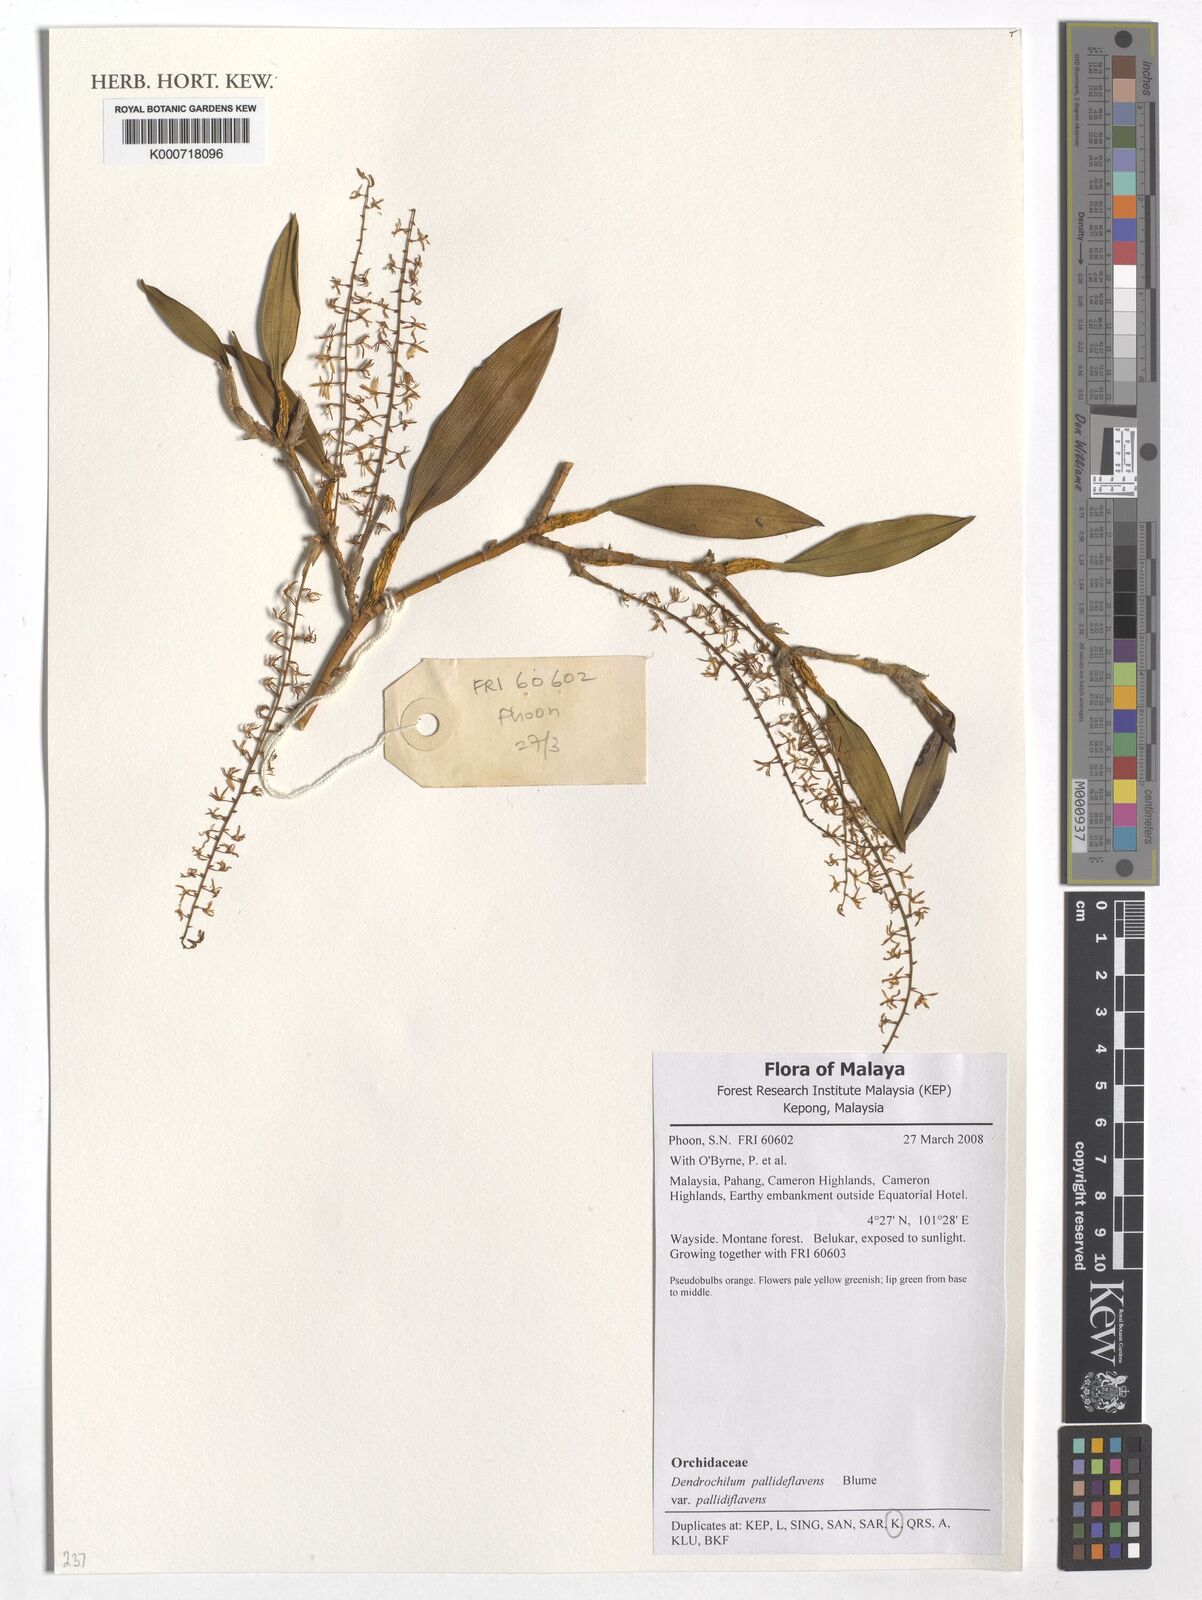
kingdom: Plantae
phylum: Tracheophyta
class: Liliopsida
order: Asparagales
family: Orchidaceae
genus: Coelogyne
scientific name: Coelogyne pallidiflavens
